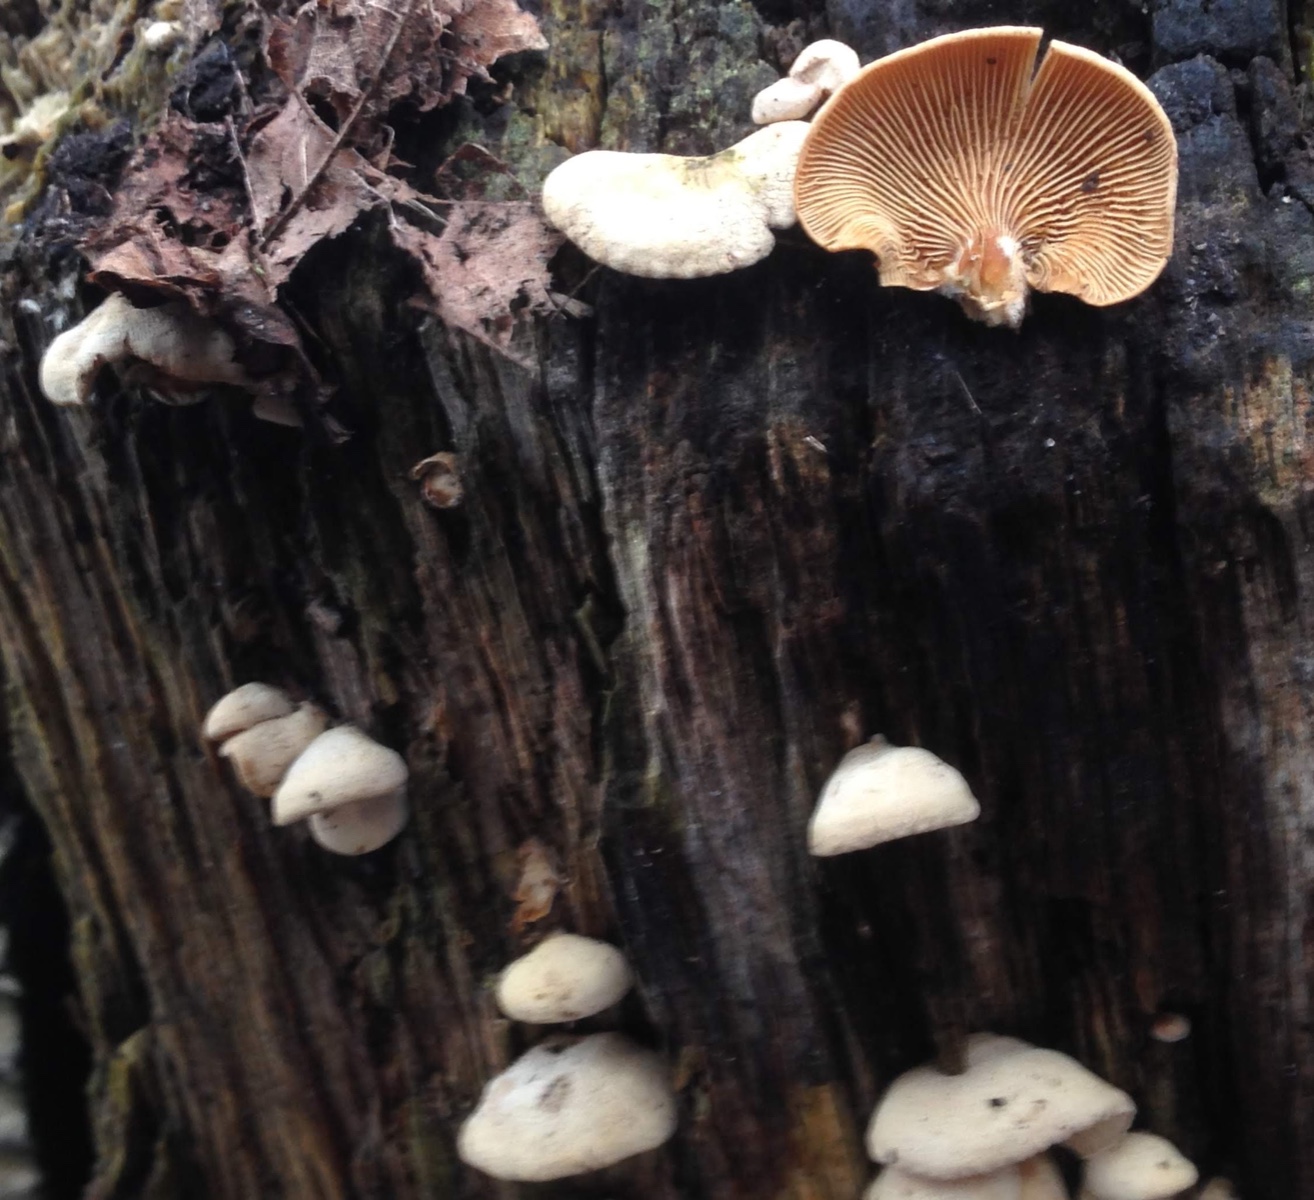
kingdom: Fungi
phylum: Basidiomycota
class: Agaricomycetes
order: Agaricales
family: Mycenaceae
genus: Panellus
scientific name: Panellus stipticus
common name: kliddet epaulethat
